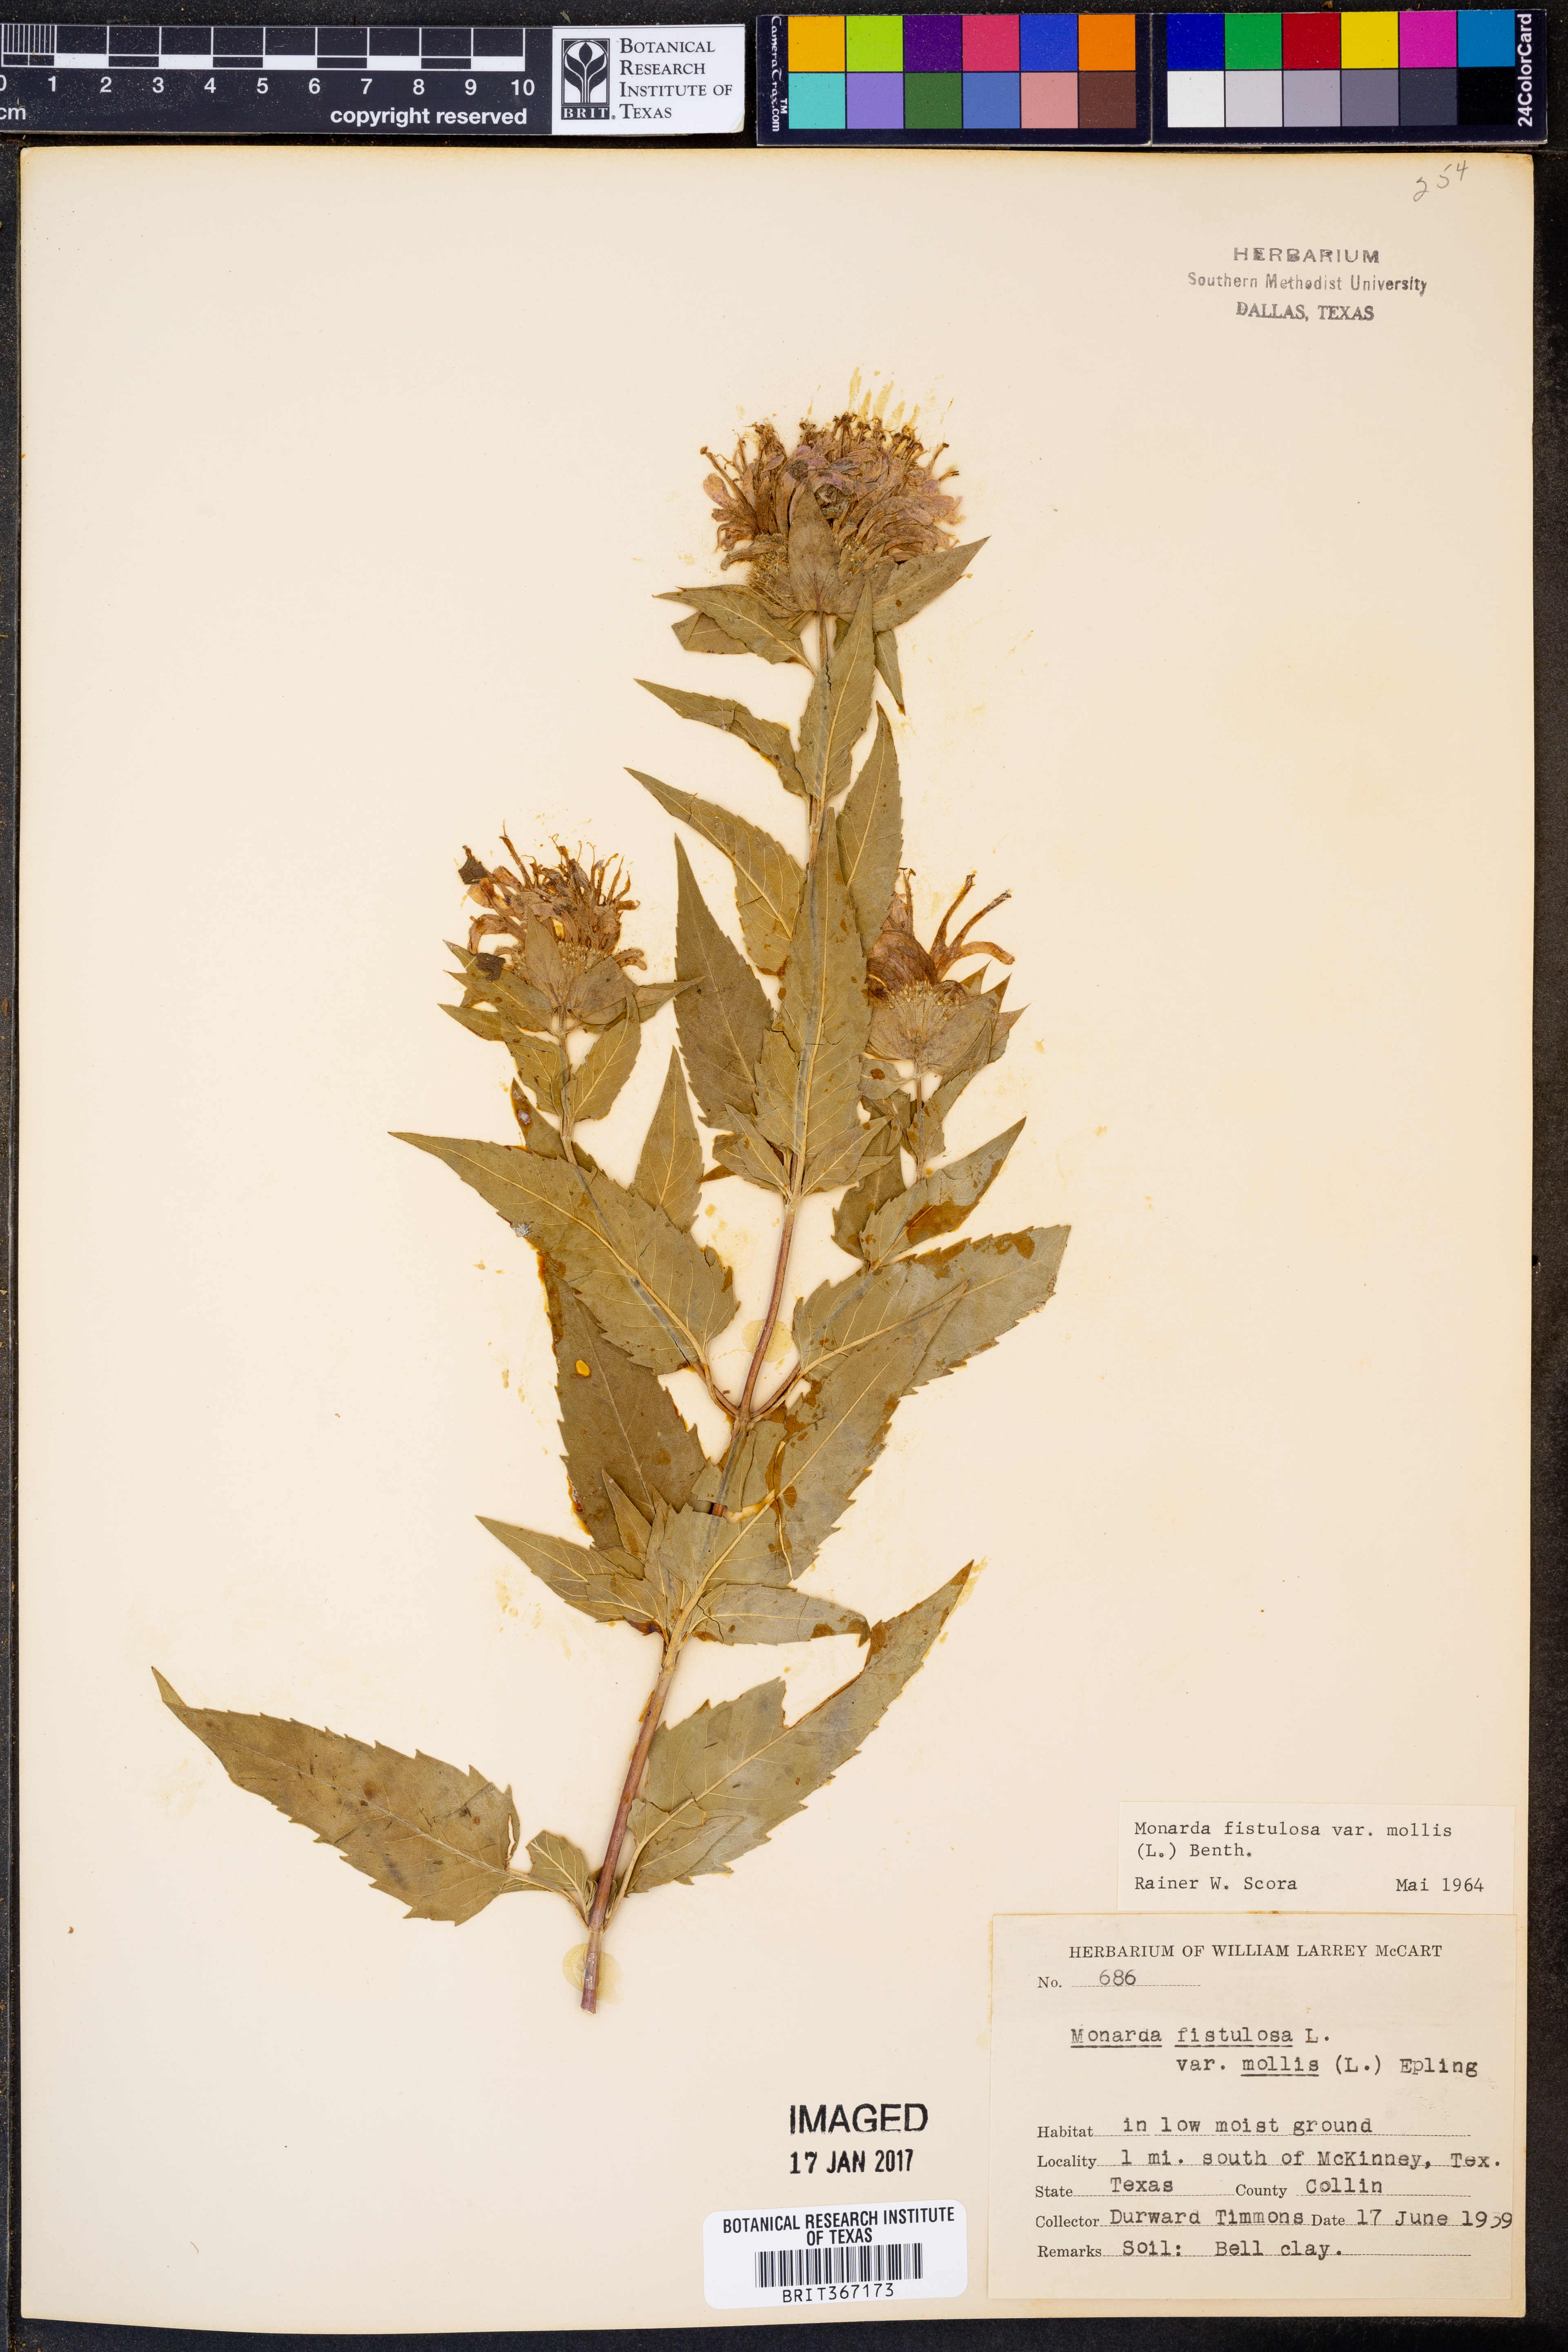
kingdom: Plantae
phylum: Tracheophyta
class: Magnoliopsida
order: Lamiales
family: Lamiaceae
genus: Monarda
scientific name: Monarda fistulosa
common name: Purple beebalm
